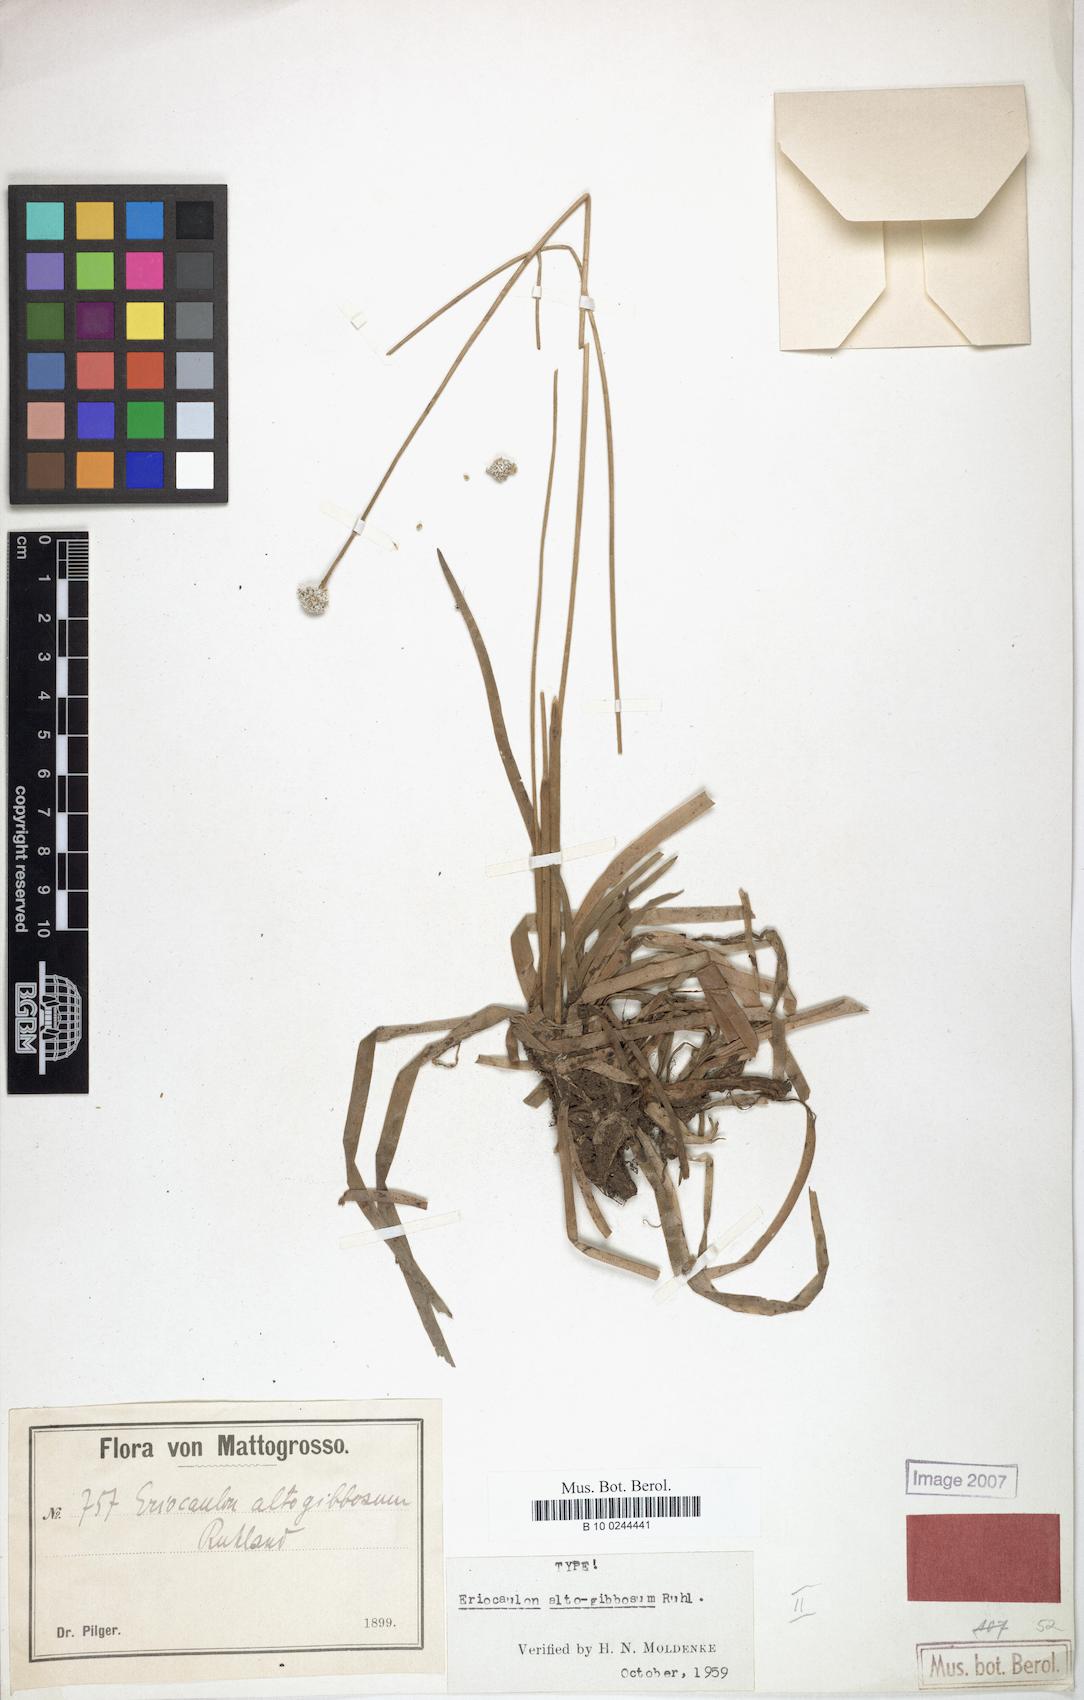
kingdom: Plantae
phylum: Tracheophyta
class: Liliopsida
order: Poales
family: Eriocaulaceae
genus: Eriocaulon
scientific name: Eriocaulon altogibbosum
